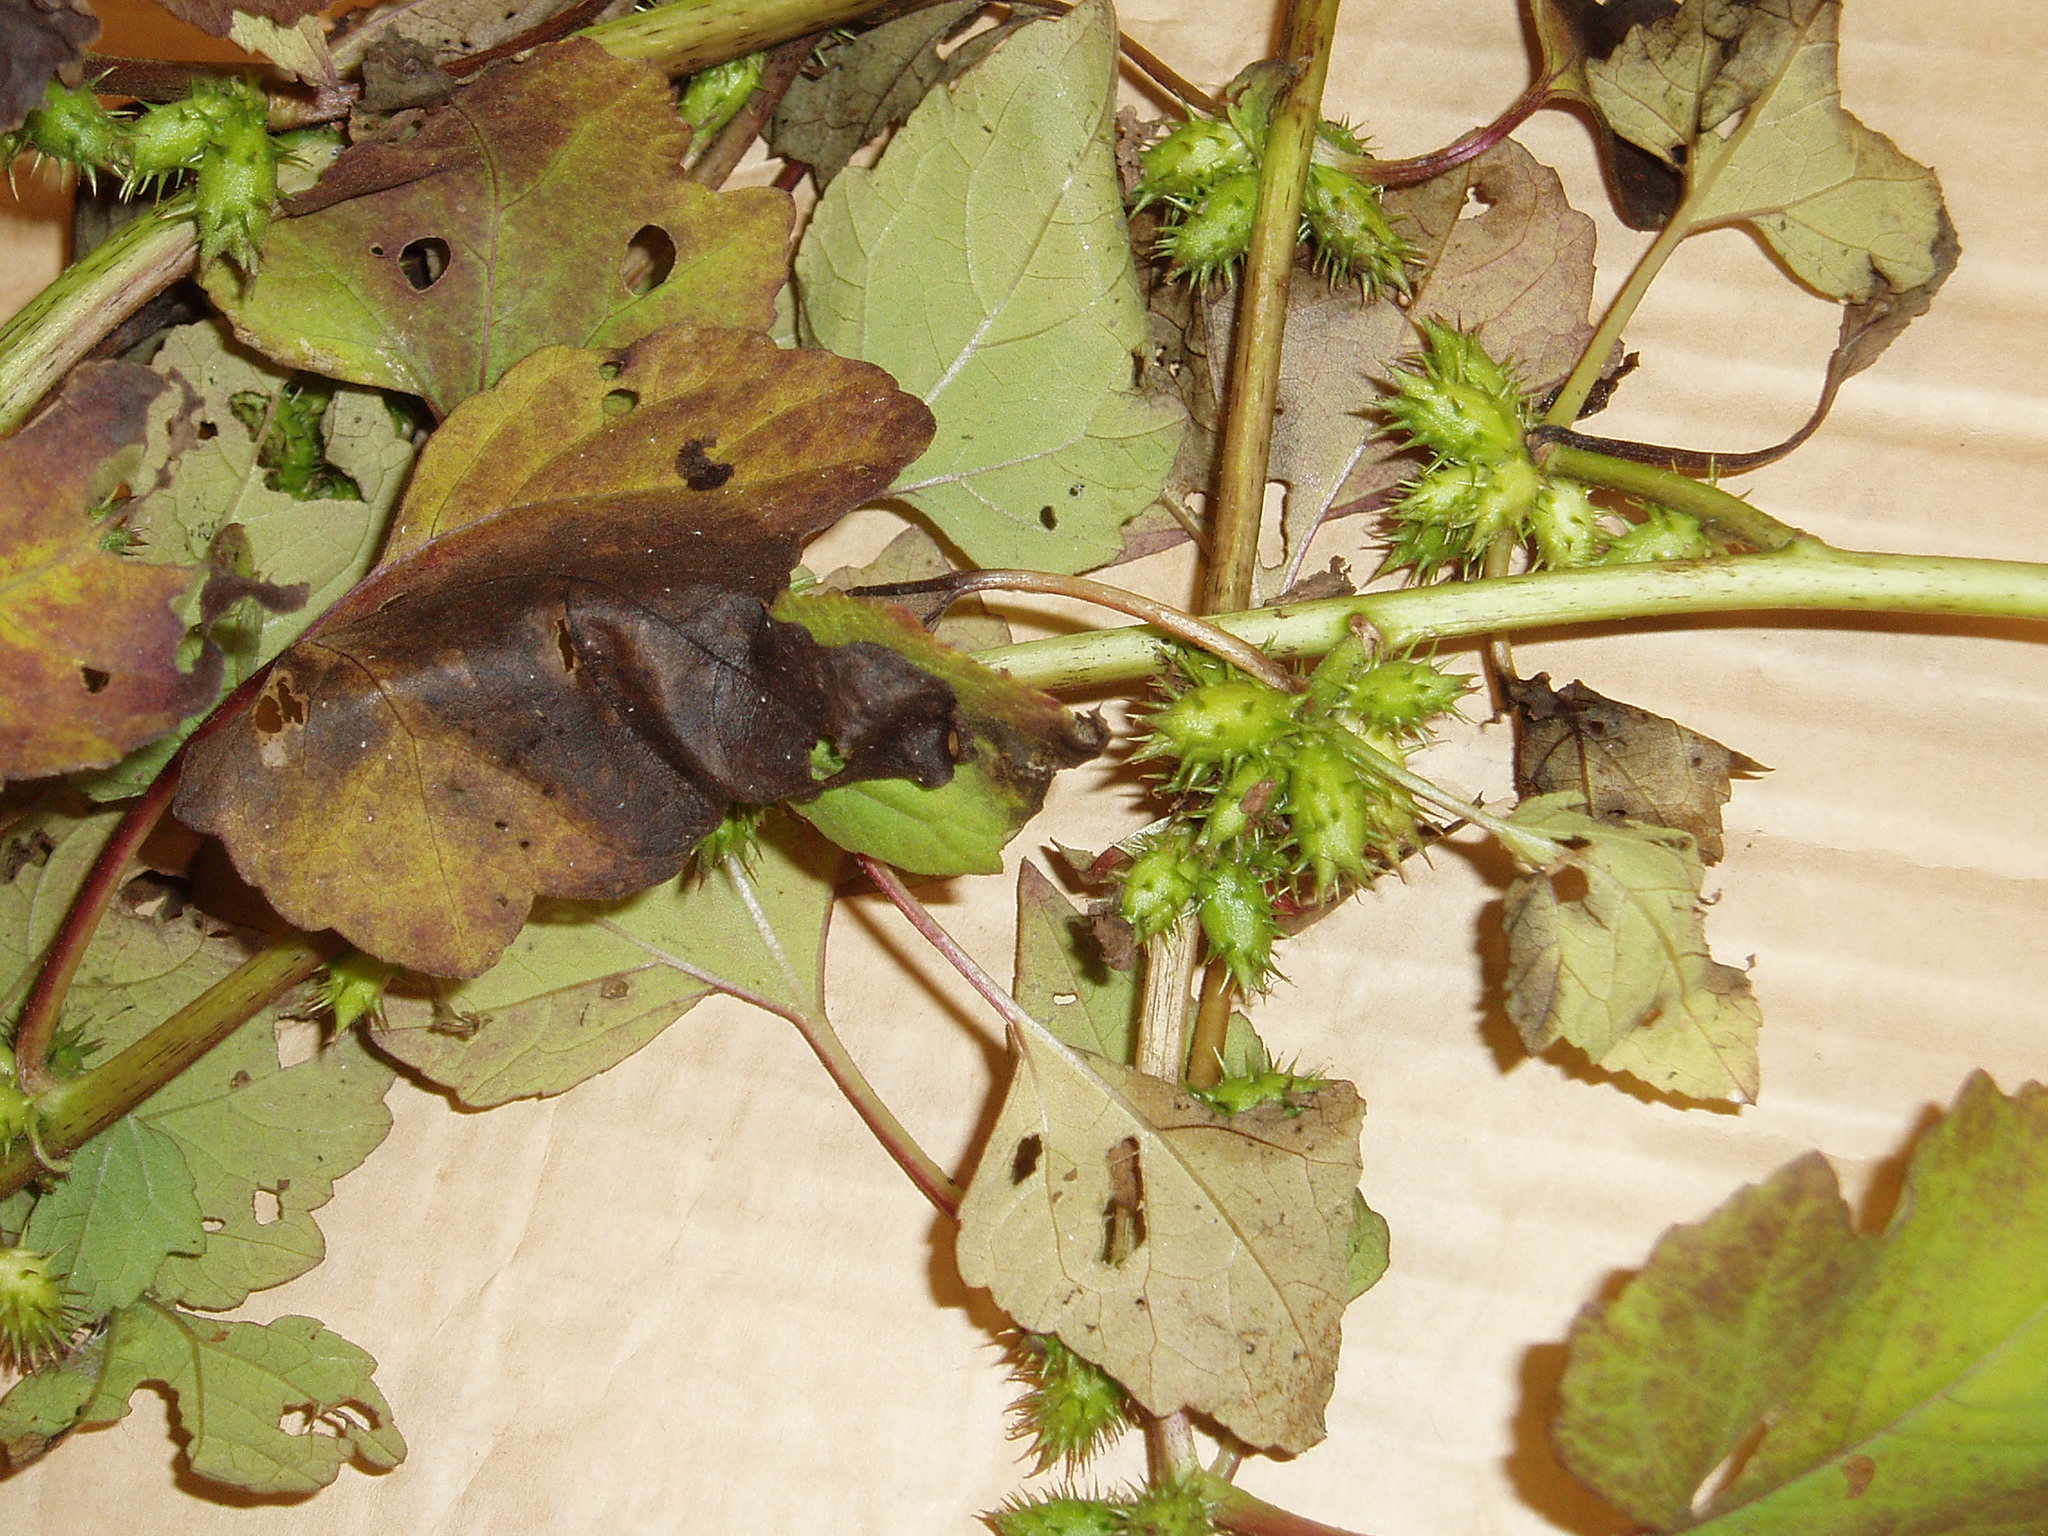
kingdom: Plantae
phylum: Tracheophyta
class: Magnoliopsida
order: Asterales
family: Asteraceae
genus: Xanthium
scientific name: Xanthium strumarium
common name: Rough cocklebur
